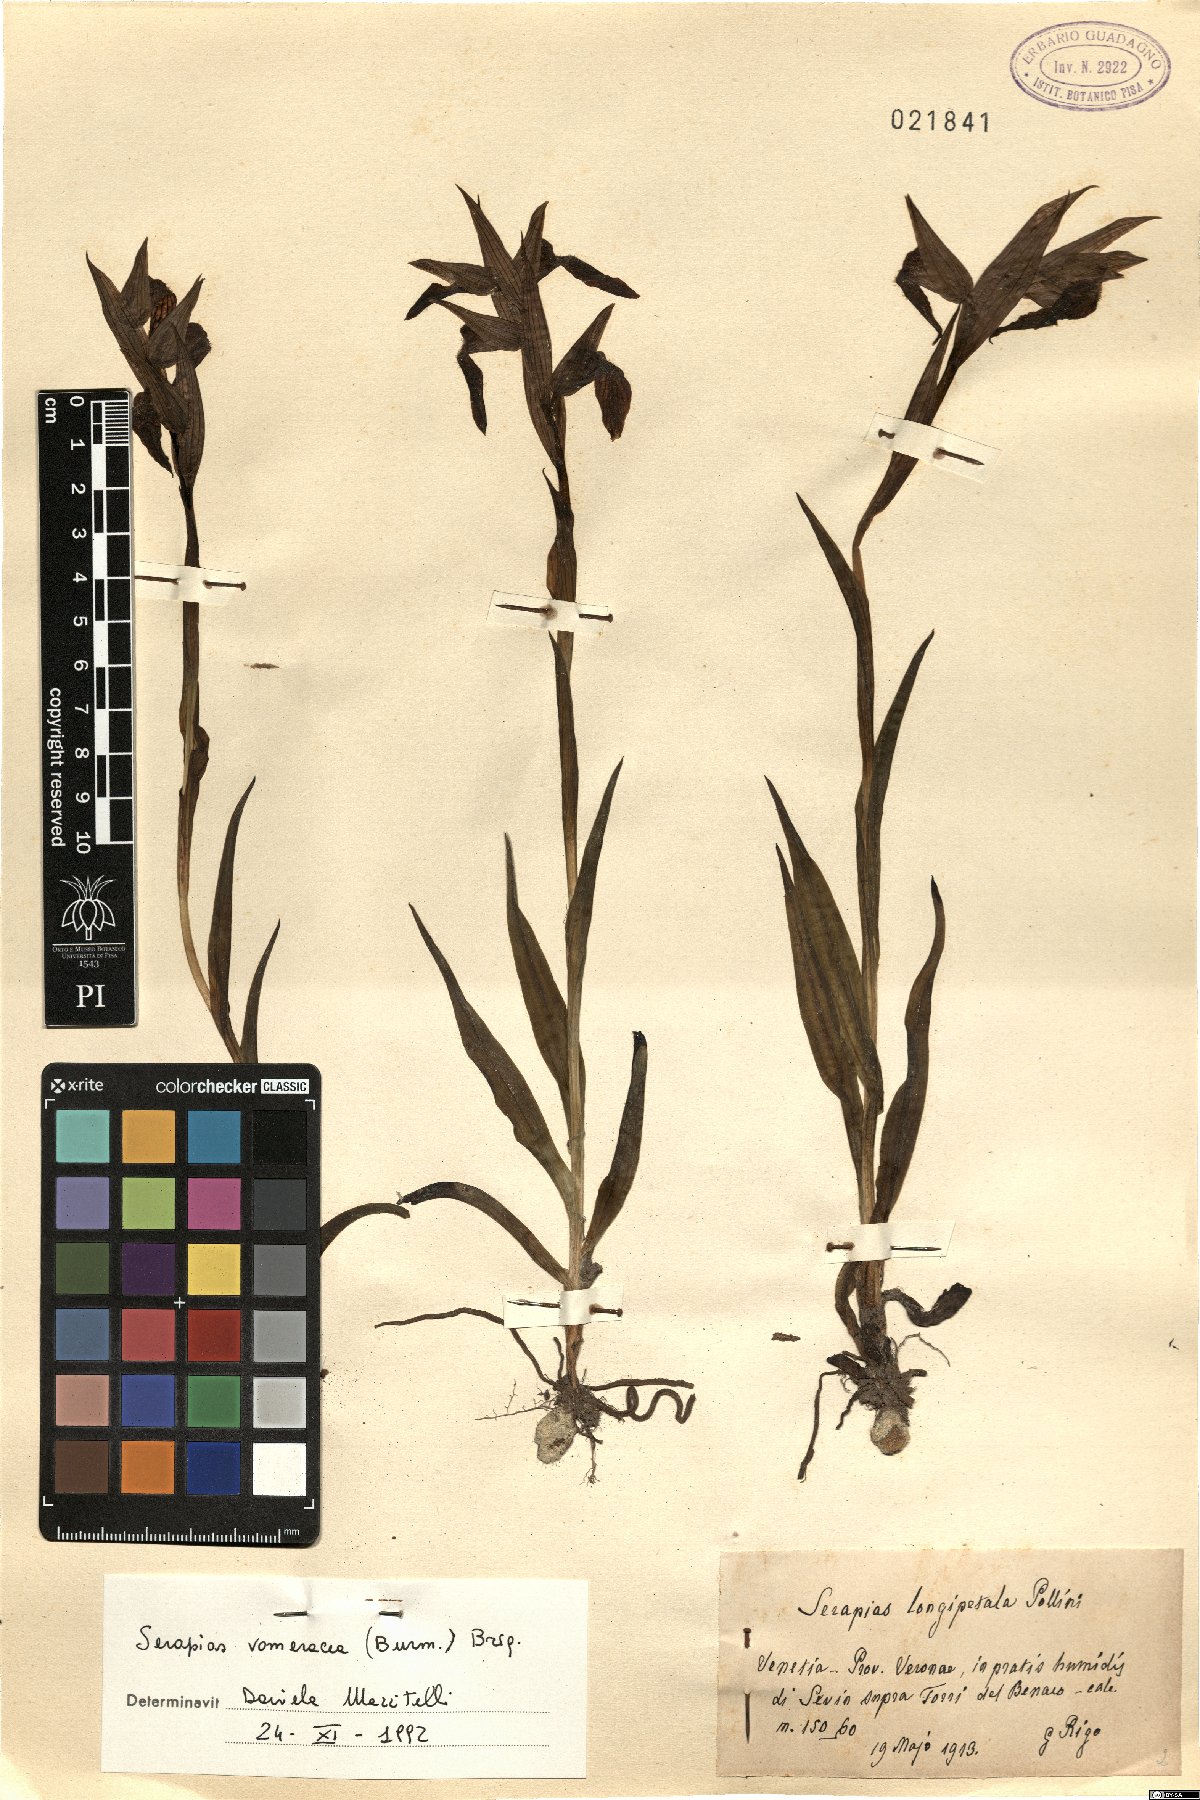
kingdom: Plantae
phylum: Tracheophyta
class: Liliopsida
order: Asparagales
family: Orchidaceae
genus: Serapias
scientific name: Serapias vomeracea
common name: Long-lipped tongue-orchid
